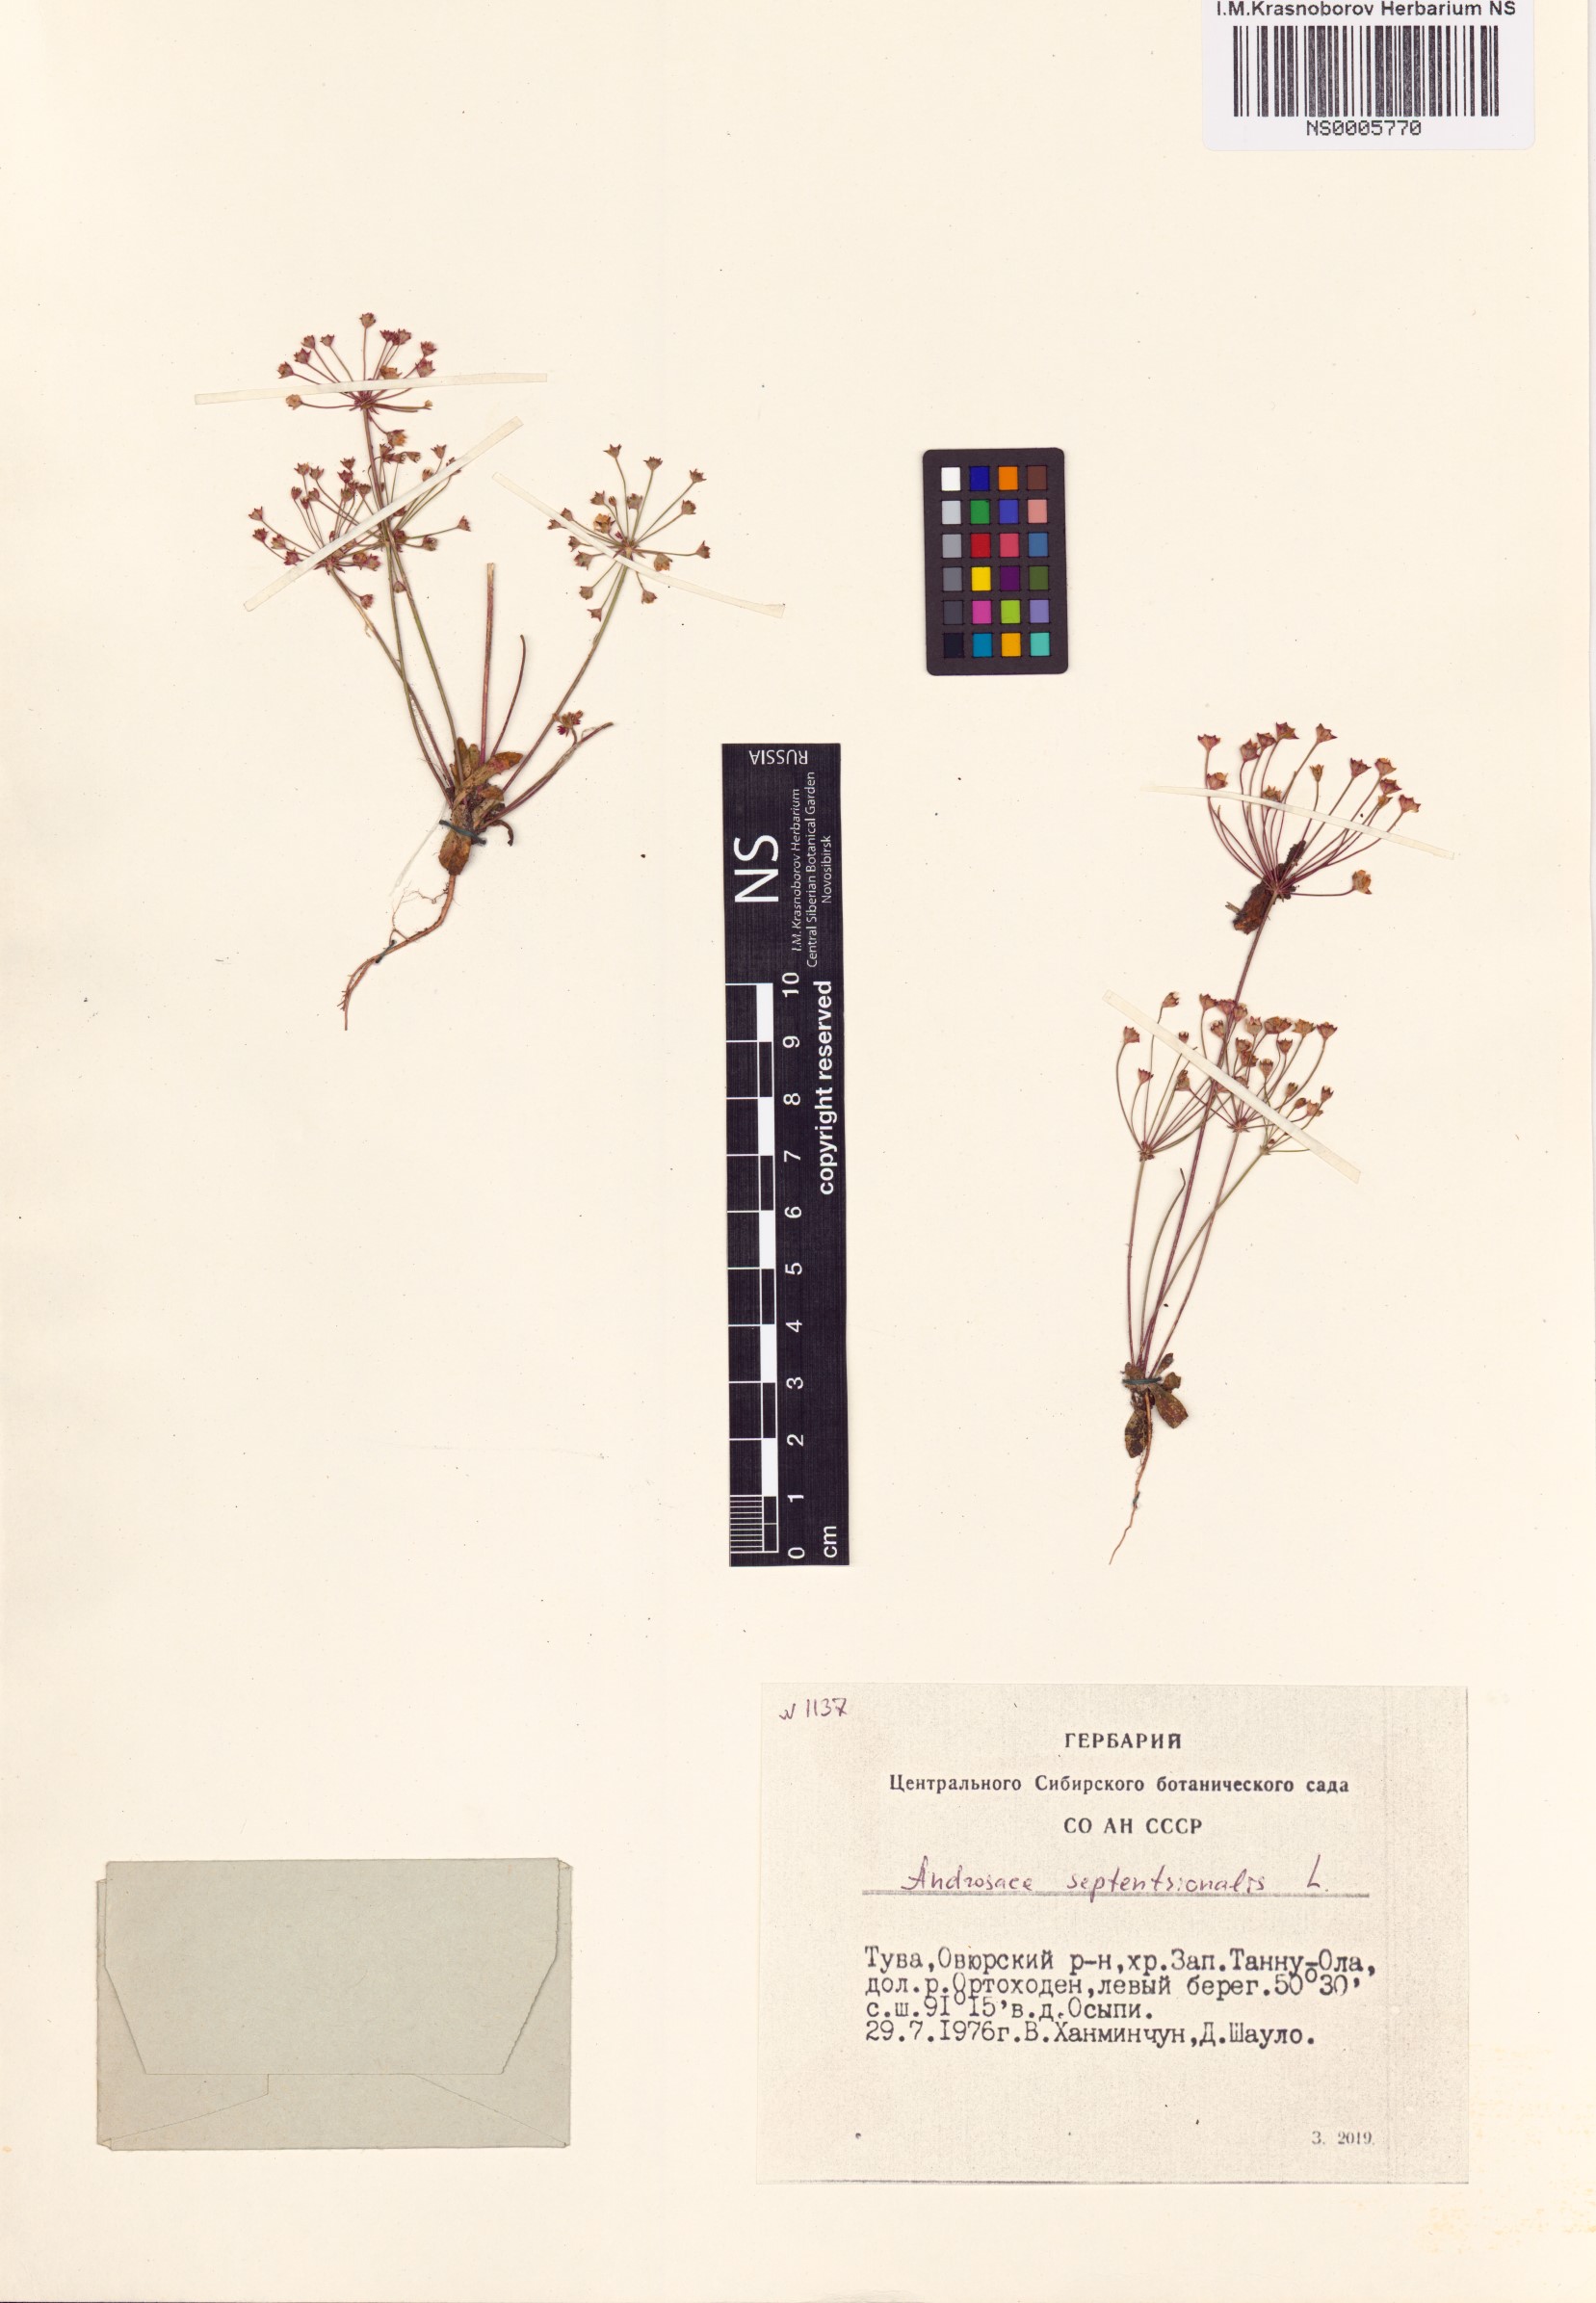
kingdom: Plantae
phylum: Tracheophyta
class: Magnoliopsida
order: Ericales
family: Primulaceae
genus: Androsace
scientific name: Androsace septentrionalis
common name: Hairy northern fairy-candelabra
